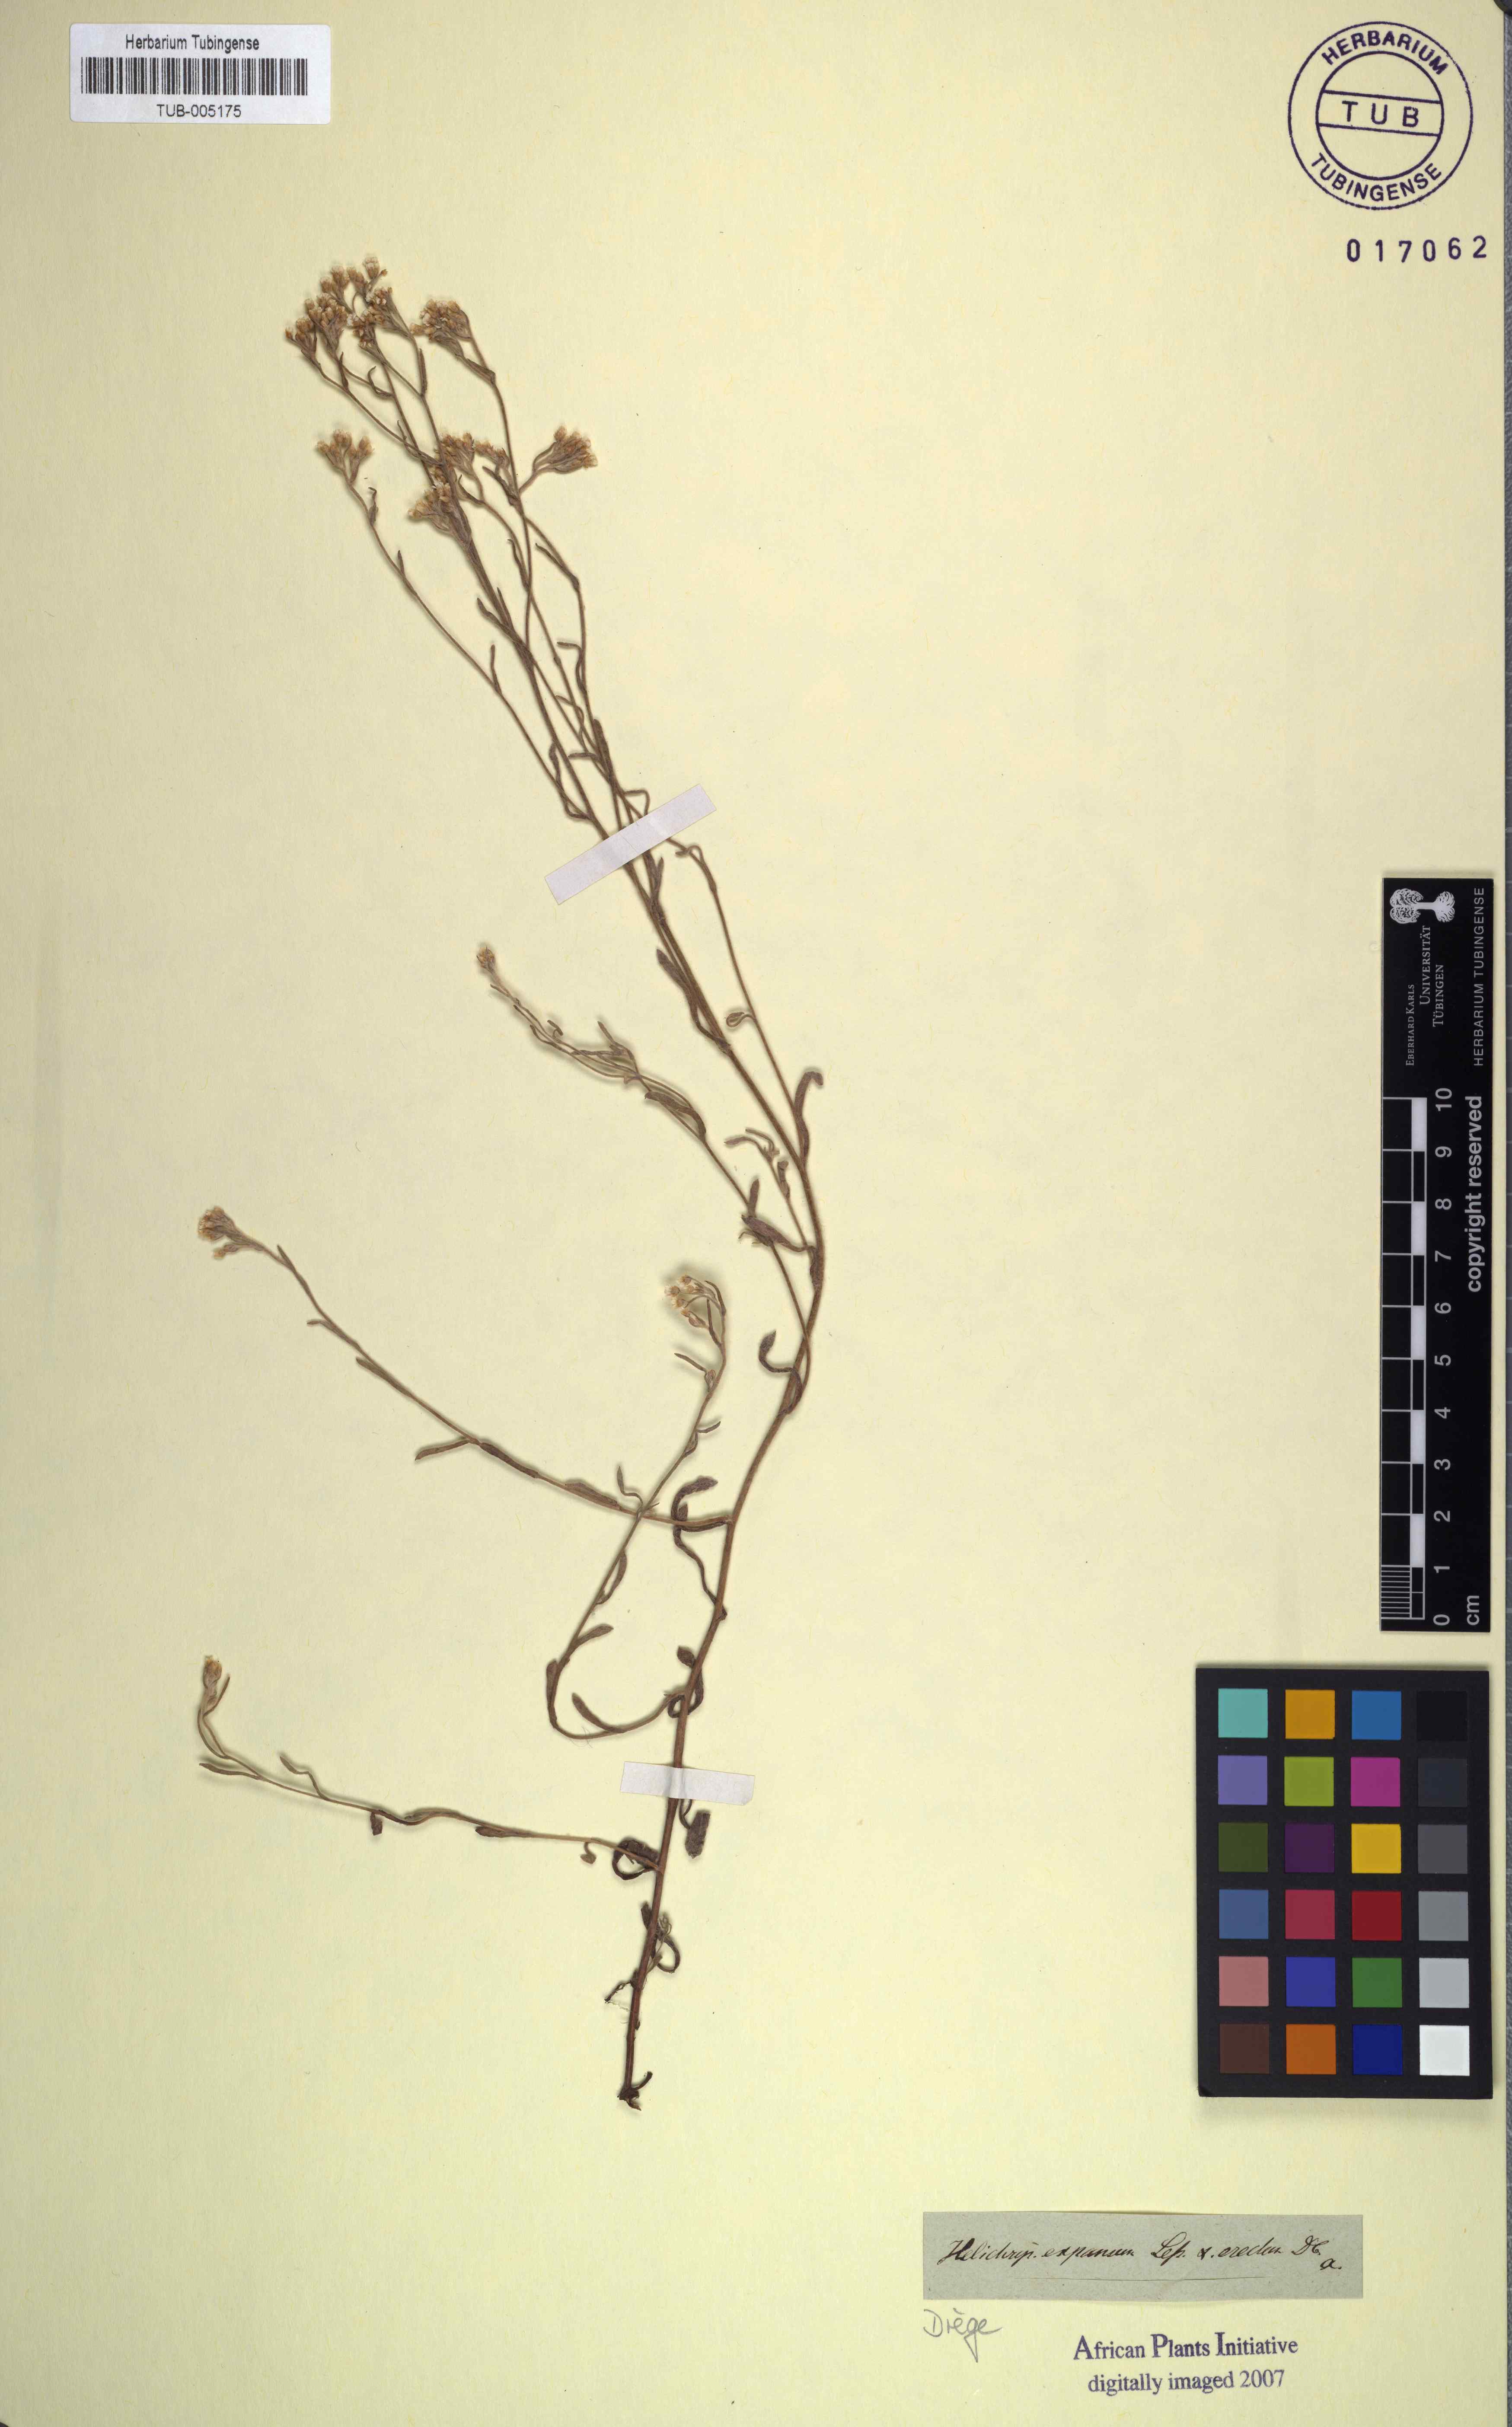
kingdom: Plantae
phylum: Tracheophyta
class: Magnoliopsida
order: Asterales
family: Asteraceae
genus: Helichrysum
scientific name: Helichrysum indicum
